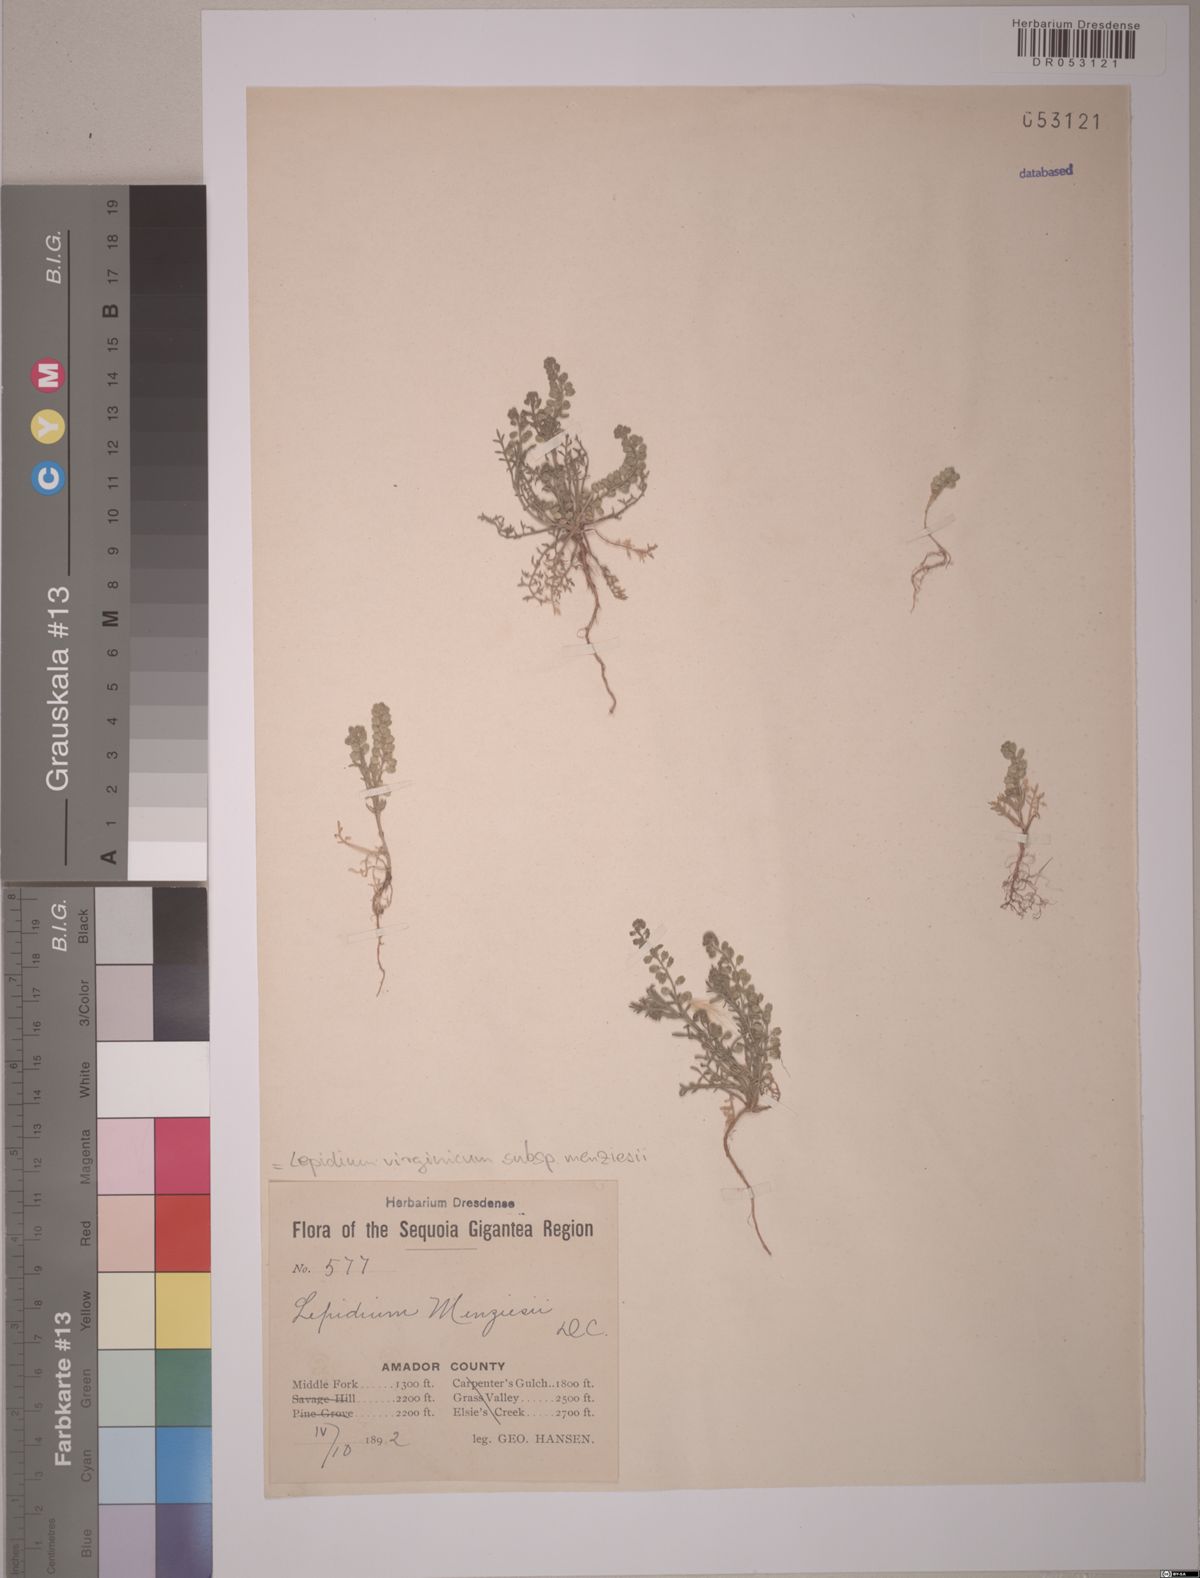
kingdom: Plantae
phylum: Tracheophyta
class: Magnoliopsida
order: Brassicales
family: Brassicaceae
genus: Lepidium
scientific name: Lepidium virginicum
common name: Least pepperwort
